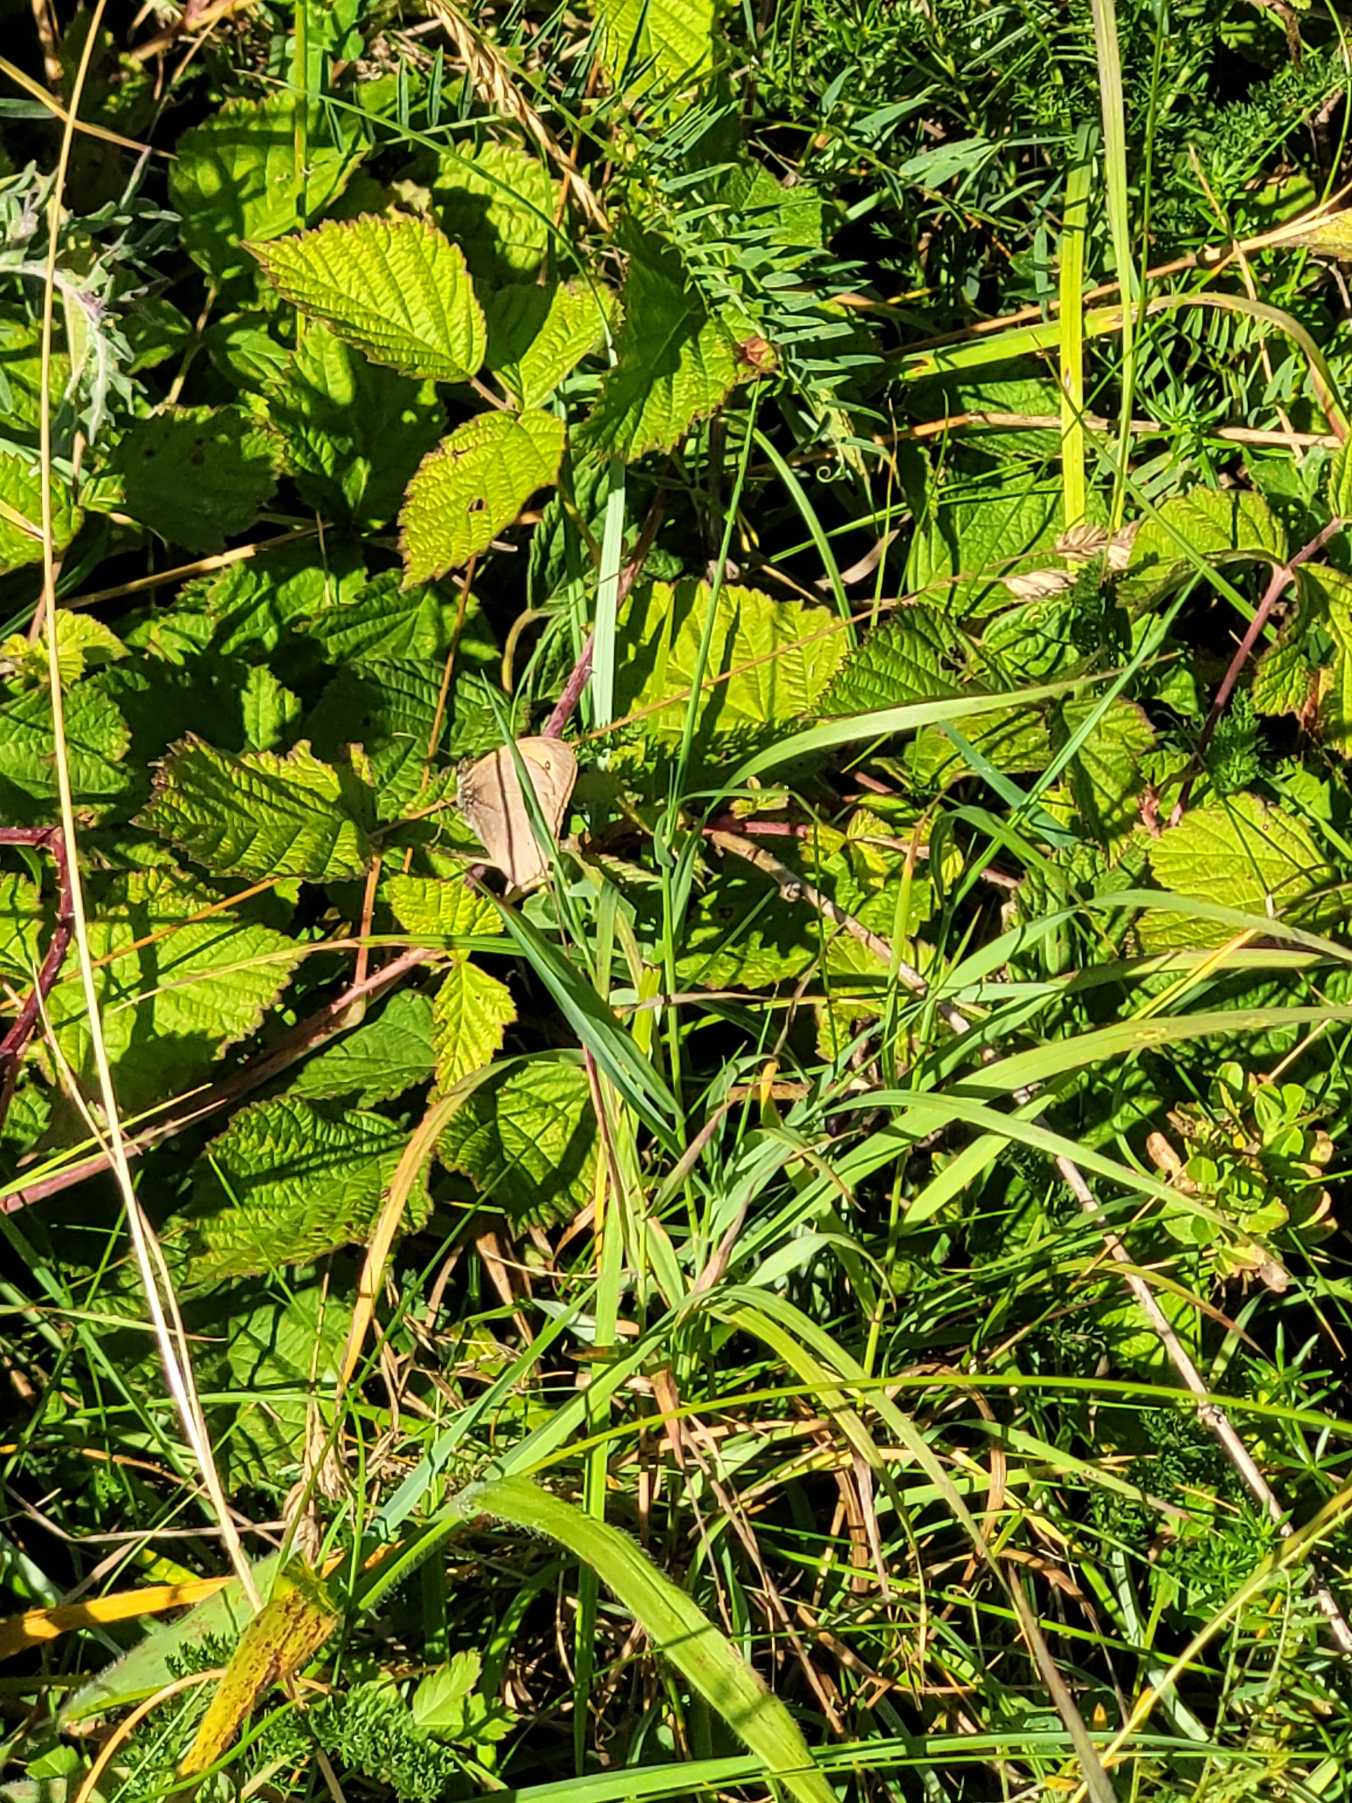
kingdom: Animalia
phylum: Arthropoda
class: Insecta
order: Lepidoptera
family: Nymphalidae
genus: Maniola
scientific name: Maniola jurtina
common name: Græsrandøje
